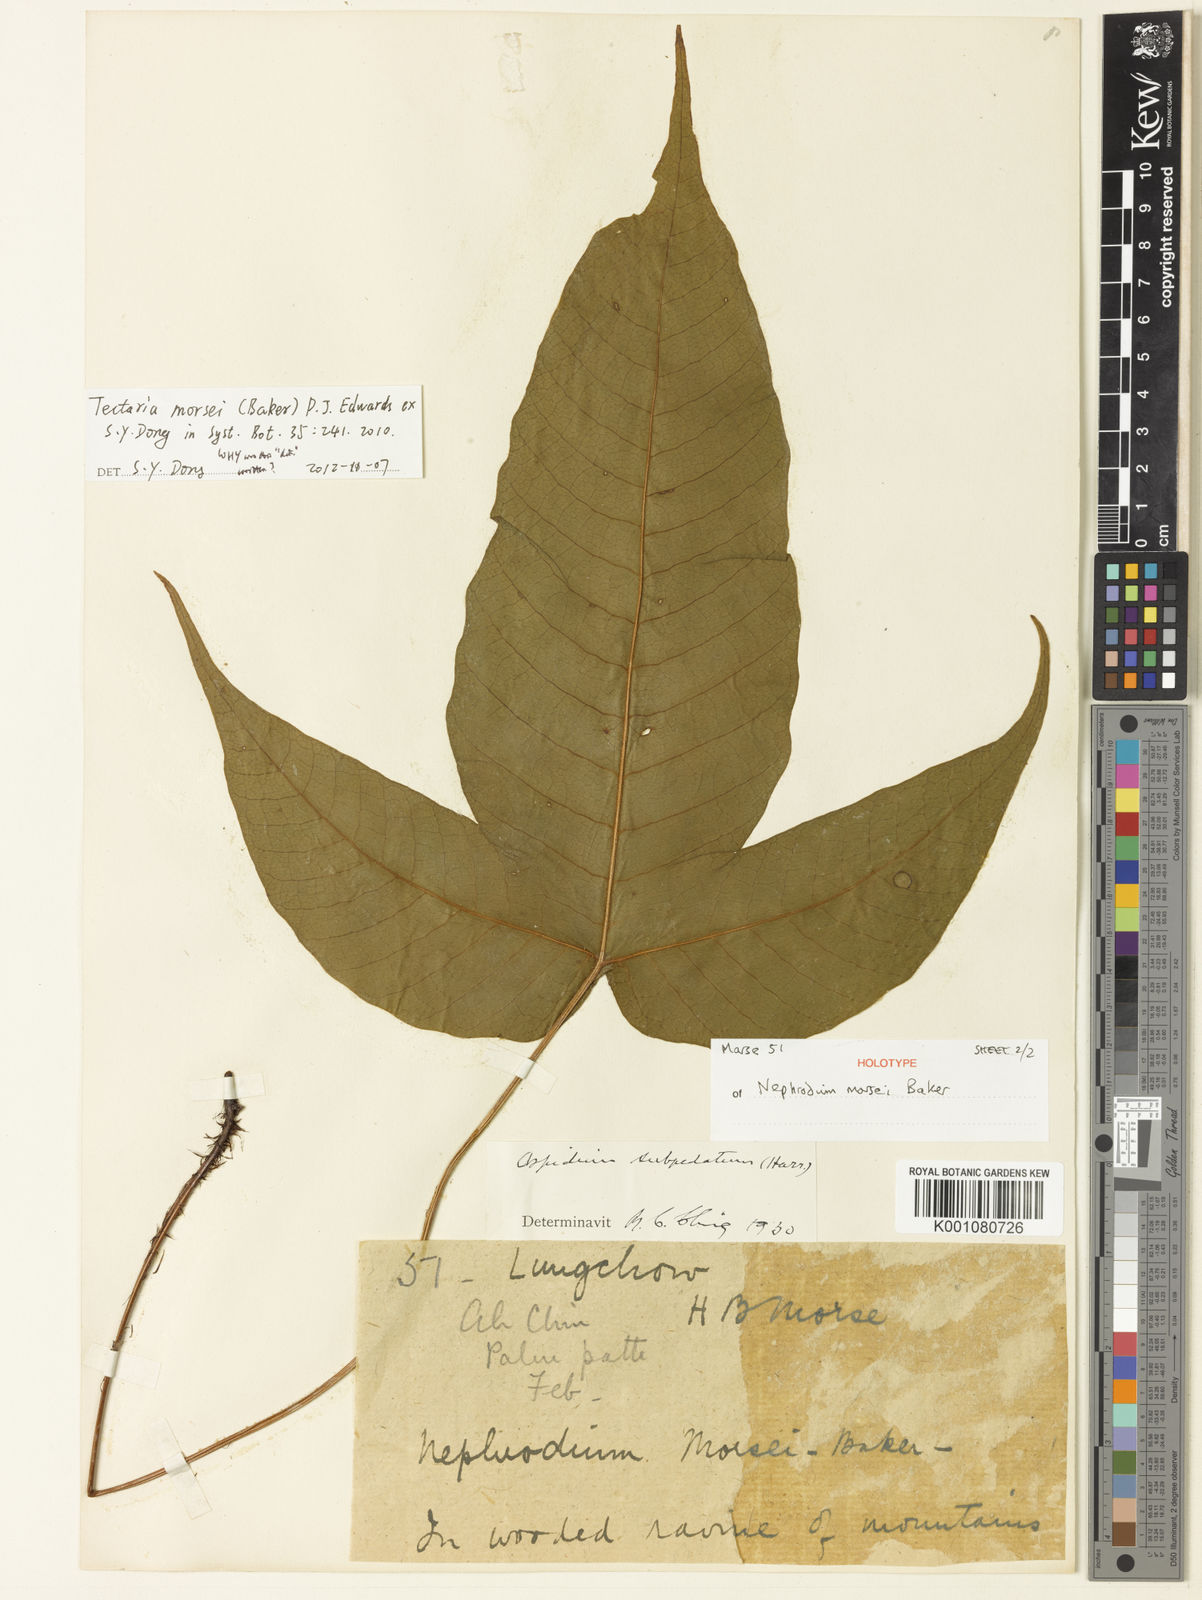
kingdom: Plantae
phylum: Tracheophyta
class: Polypodiopsida
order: Polypodiales
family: Tectariaceae
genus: Tectaria
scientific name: Tectaria polymorpha
